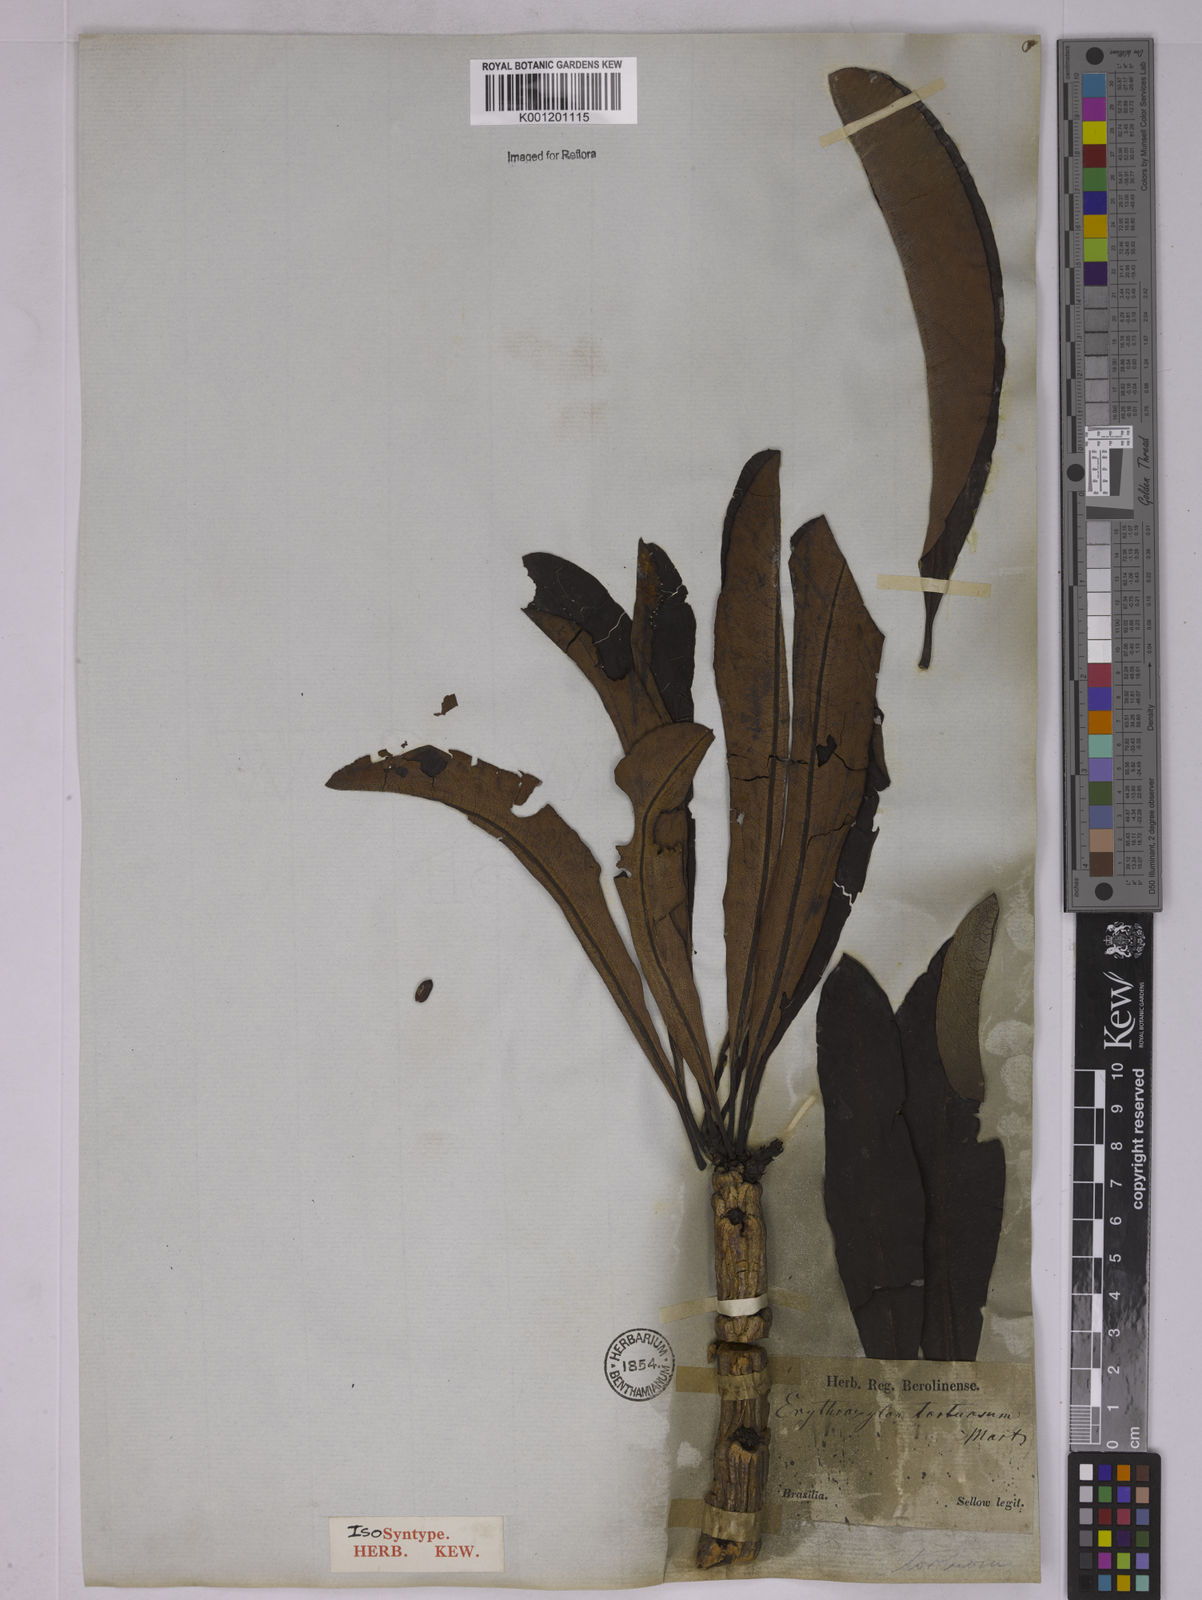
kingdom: Plantae
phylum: Tracheophyta
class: Magnoliopsida
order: Malpighiales
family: Erythroxylaceae
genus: Erythroxylum
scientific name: Erythroxylum tortuosum
